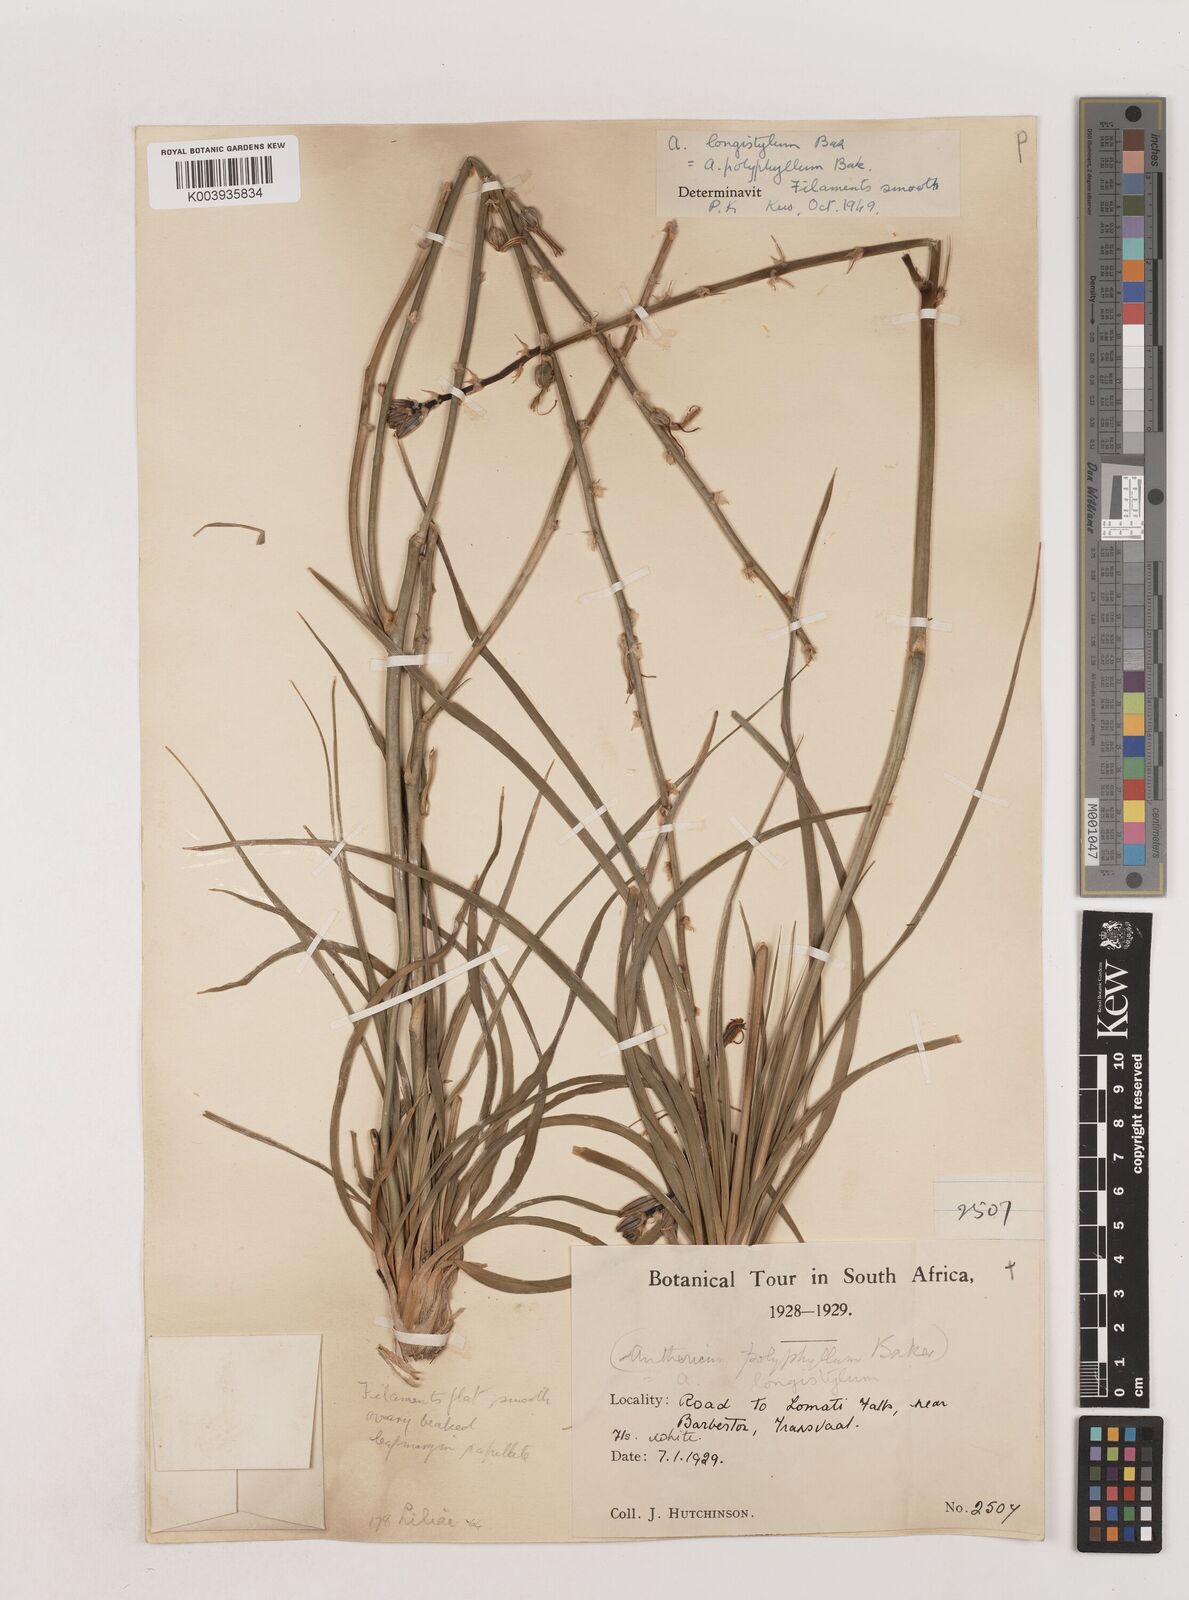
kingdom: Plantae
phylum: Tracheophyta
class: Liliopsida
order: Asparagales
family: Asparagaceae
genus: Chlorophytum
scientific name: Chlorophytum recurvifolium
